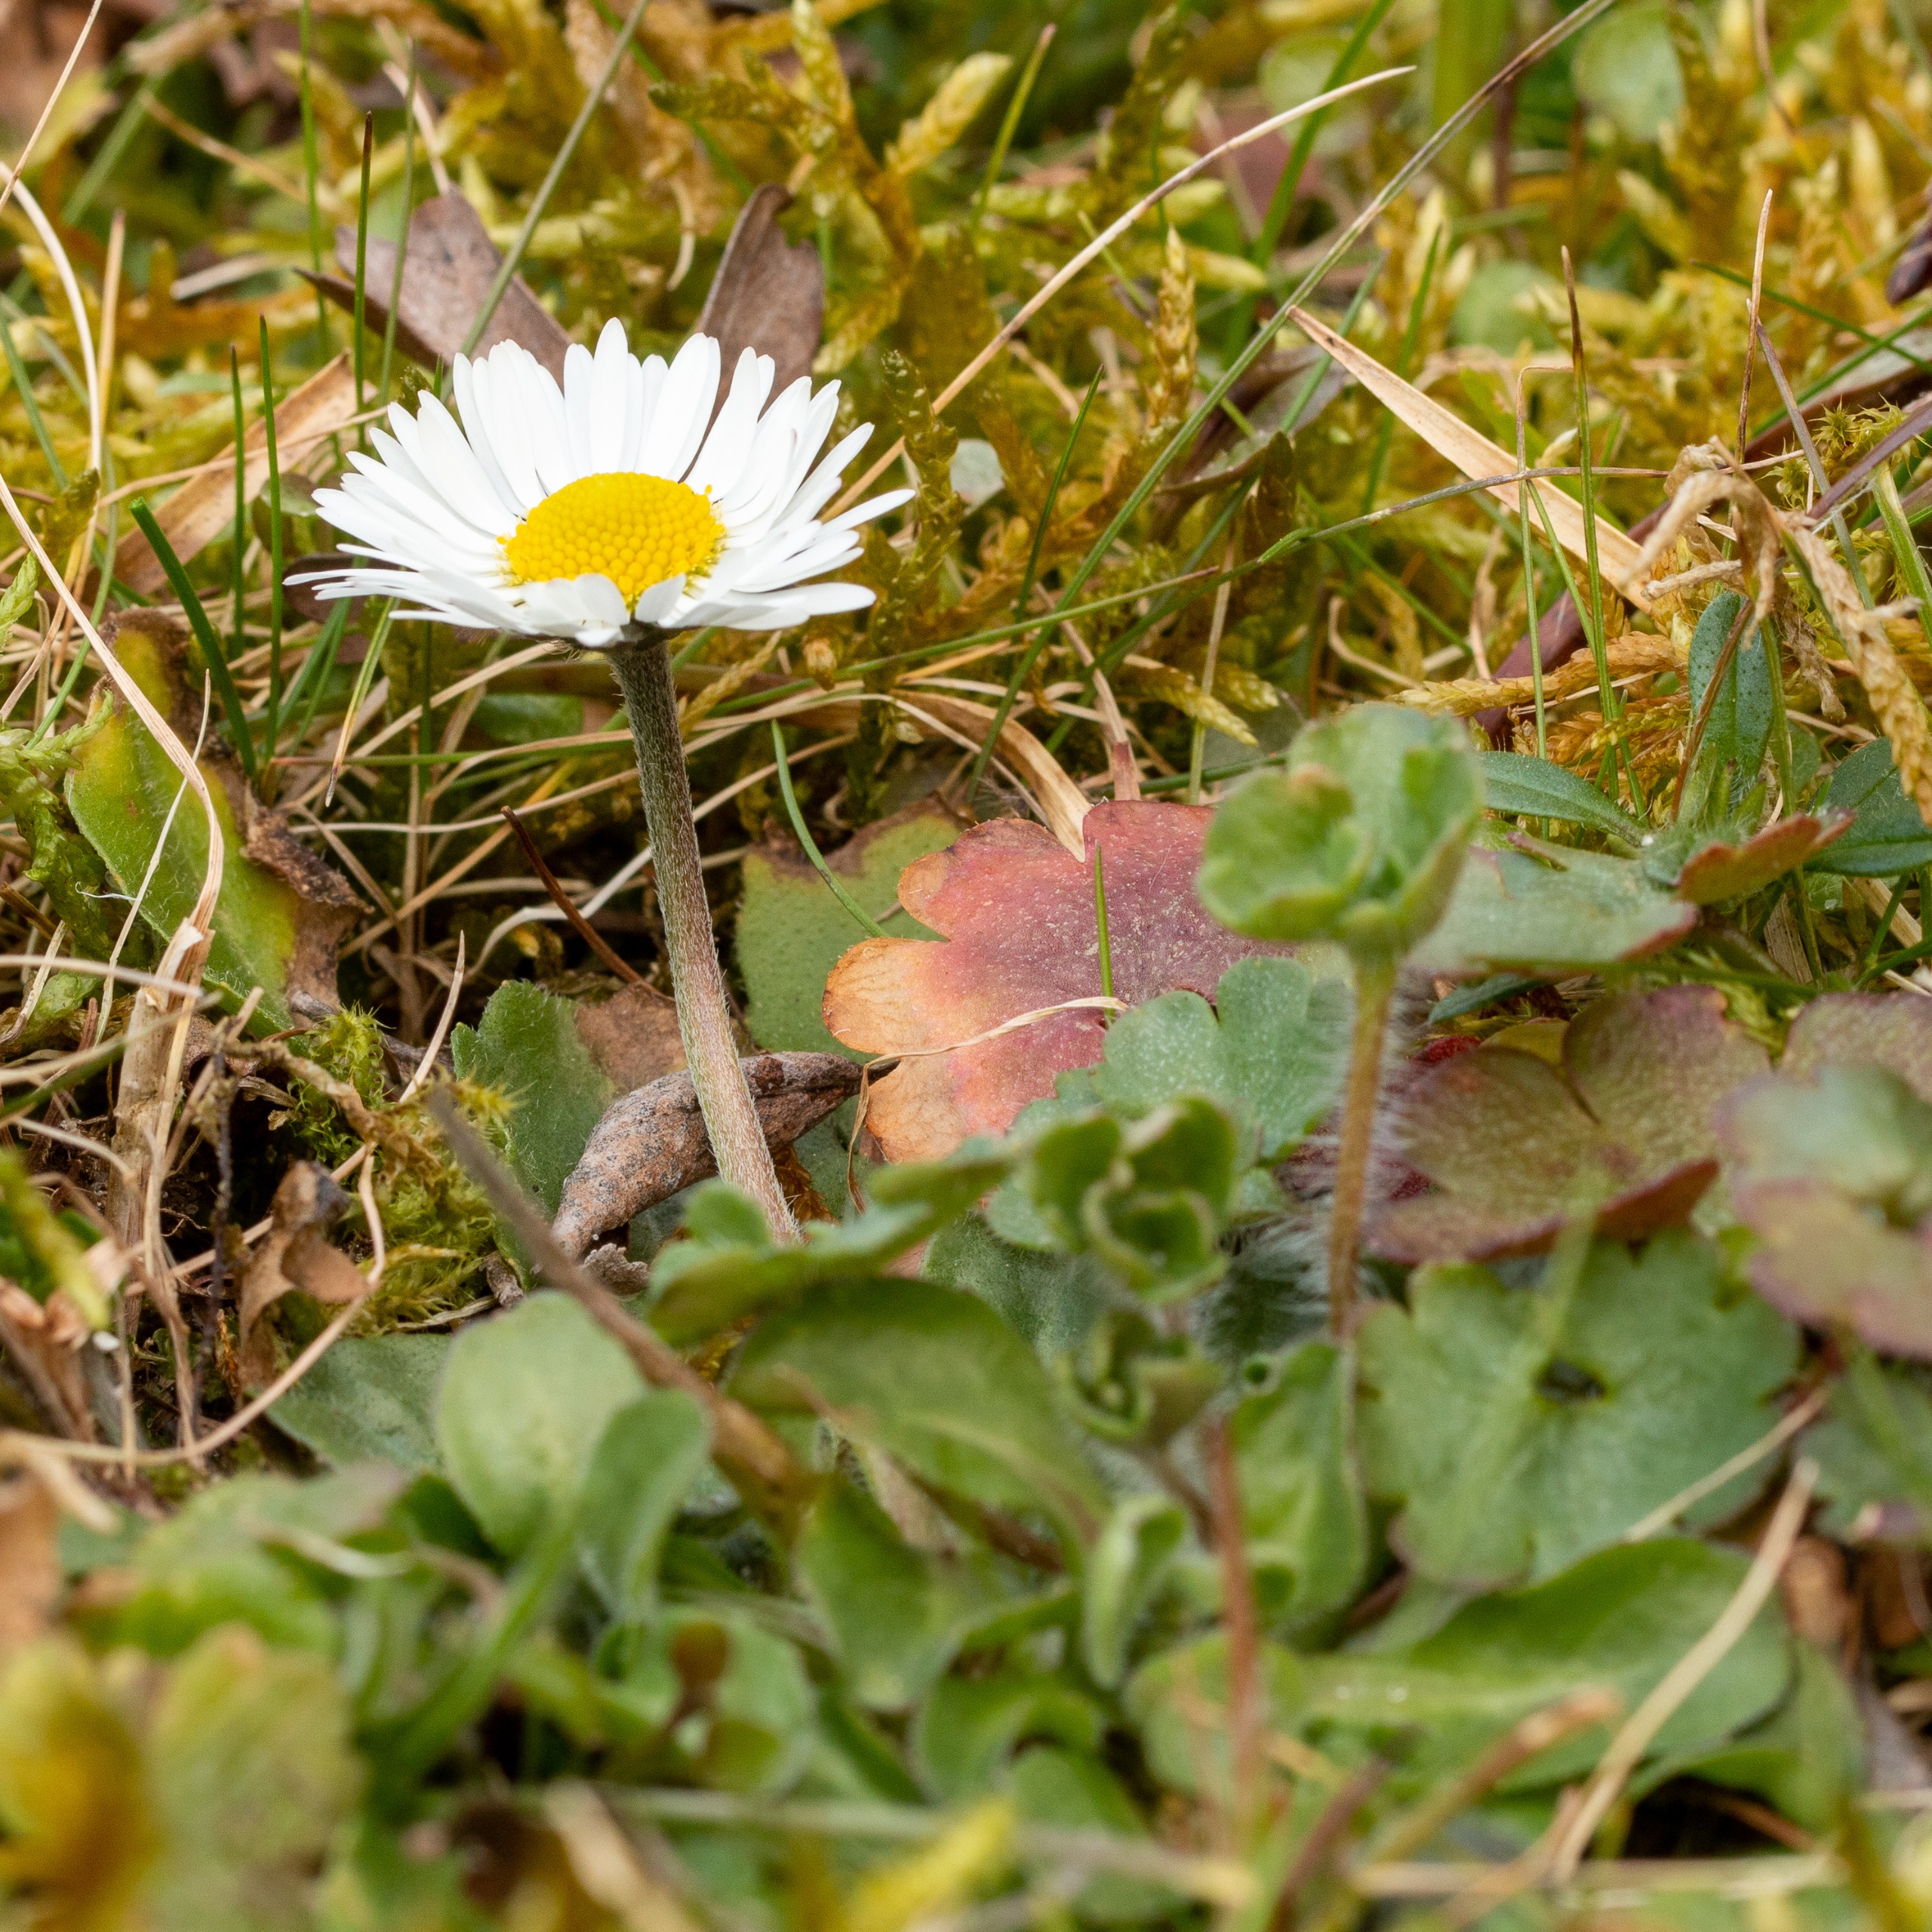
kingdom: Plantae
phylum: Tracheophyta
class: Magnoliopsida
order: Asterales
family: Asteraceae
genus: Bellis
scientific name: Bellis perennis
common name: Tusindfryd
